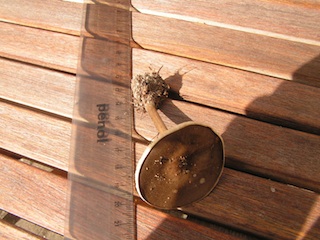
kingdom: Fungi
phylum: Basidiomycota
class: Agaricomycetes
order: Agaricales
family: Tricholomataceae
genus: Melanoleuca
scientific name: Melanoleuca polioleuca
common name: almindelig munkehat
